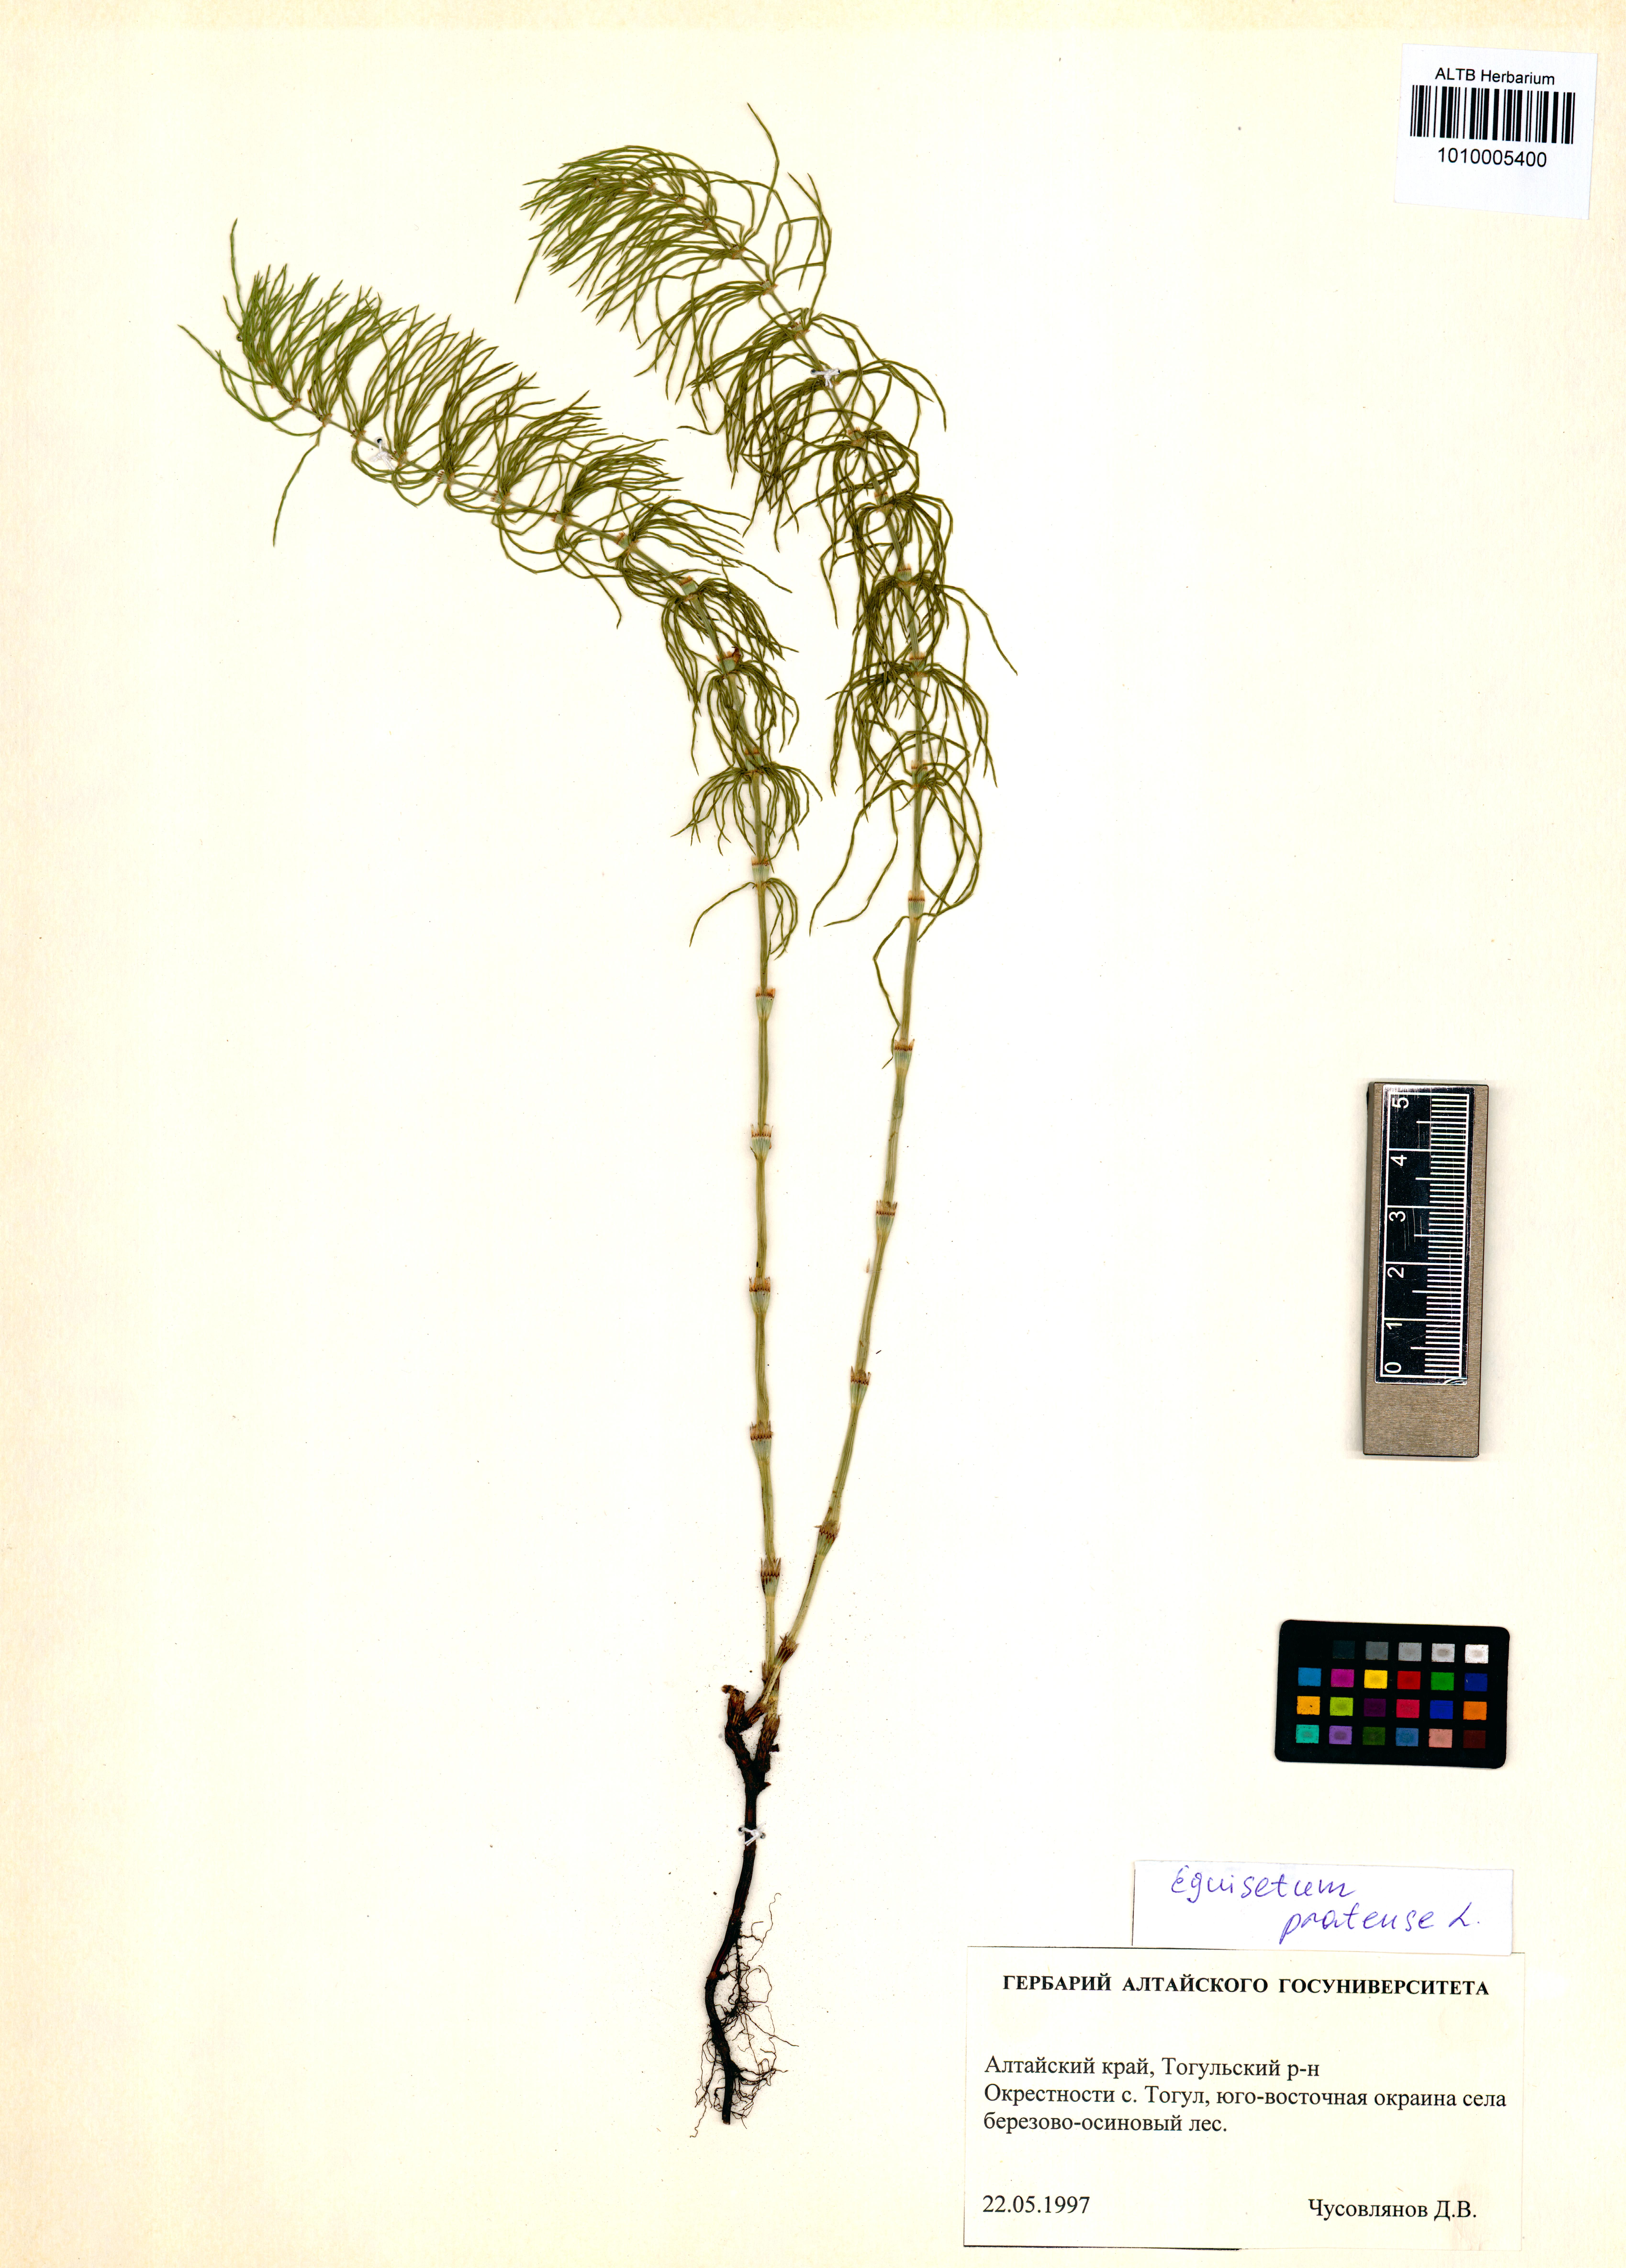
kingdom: Plantae
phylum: Tracheophyta
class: Polypodiopsida
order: Equisetales
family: Equisetaceae
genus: Equisetum
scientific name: Equisetum pratense
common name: Meadow horsetail
